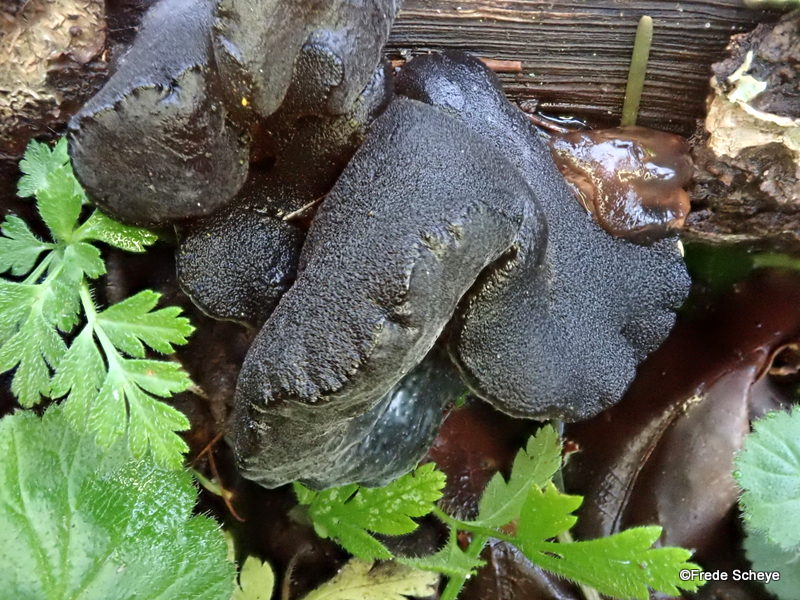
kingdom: Fungi
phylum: Basidiomycota
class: Agaricomycetes
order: Auriculariales
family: Auriculariaceae
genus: Exidia
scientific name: Exidia glandulosa
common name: ege-bævretop
